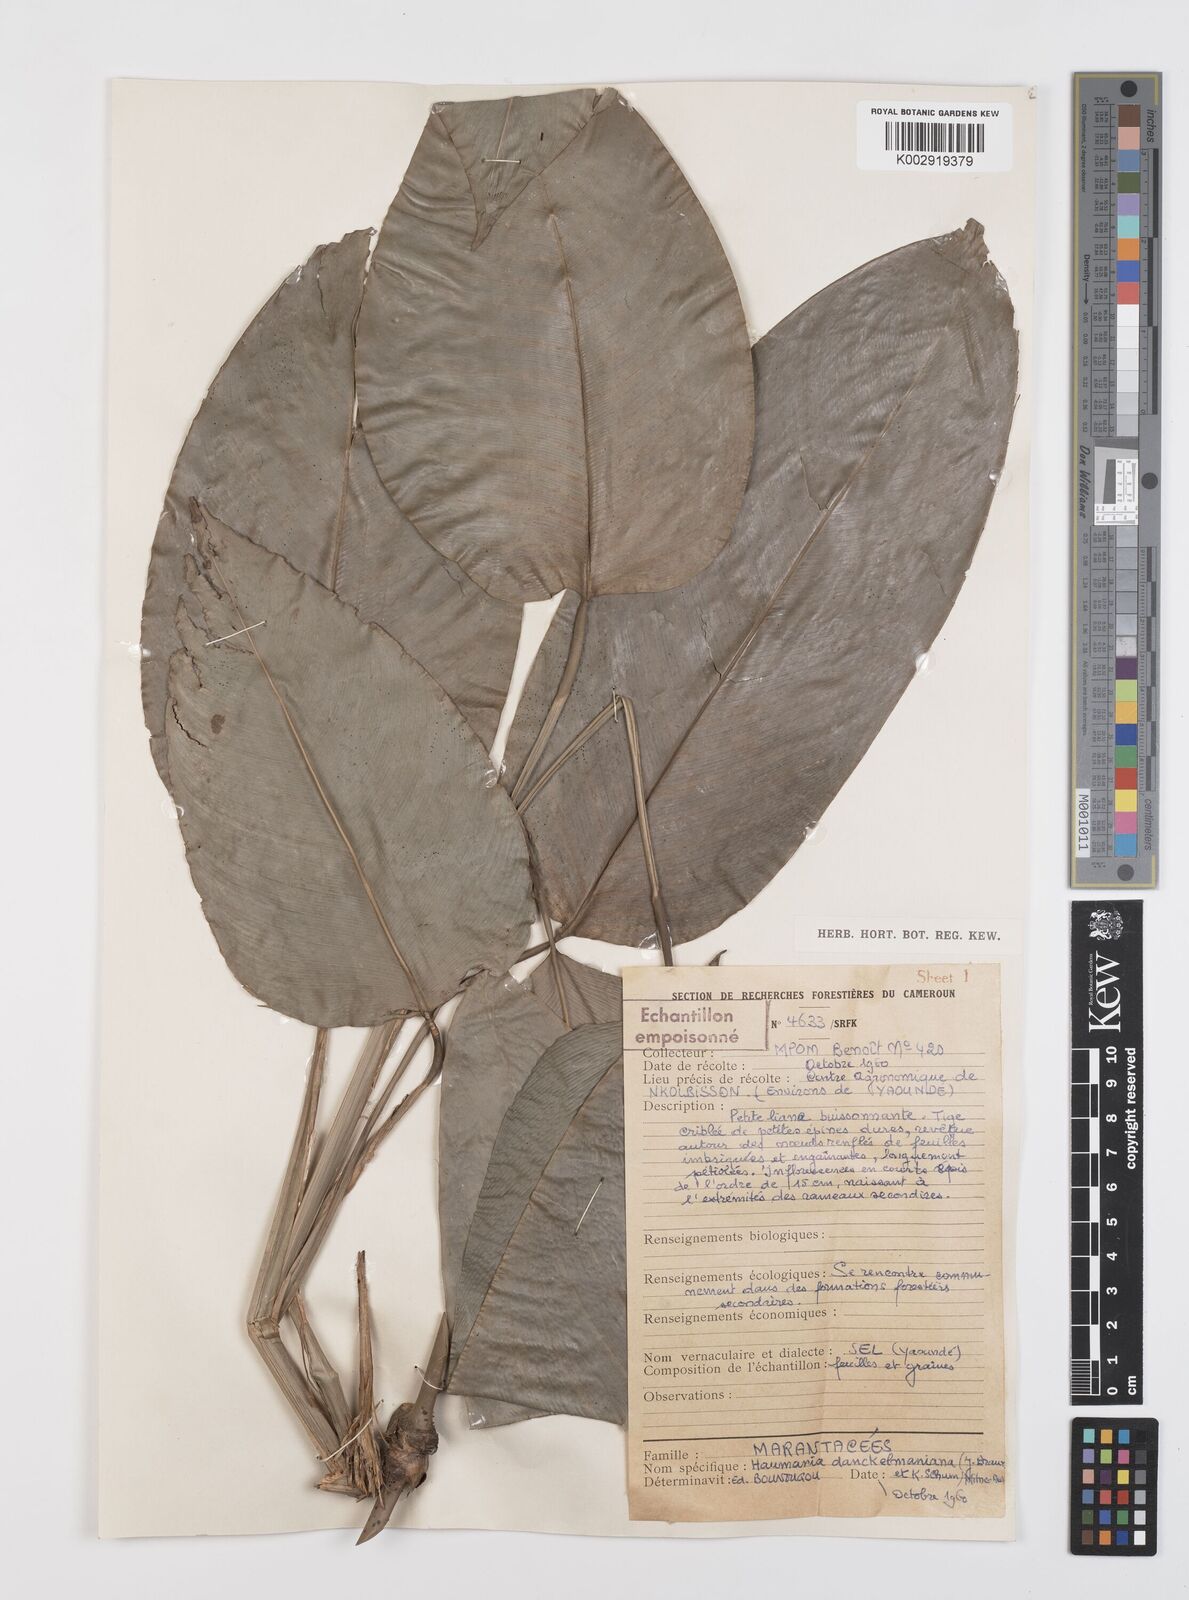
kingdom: Plantae
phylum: Tracheophyta
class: Liliopsida
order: Zingiberales
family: Marantaceae
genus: Haumania
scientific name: Haumania danckelmaniana
